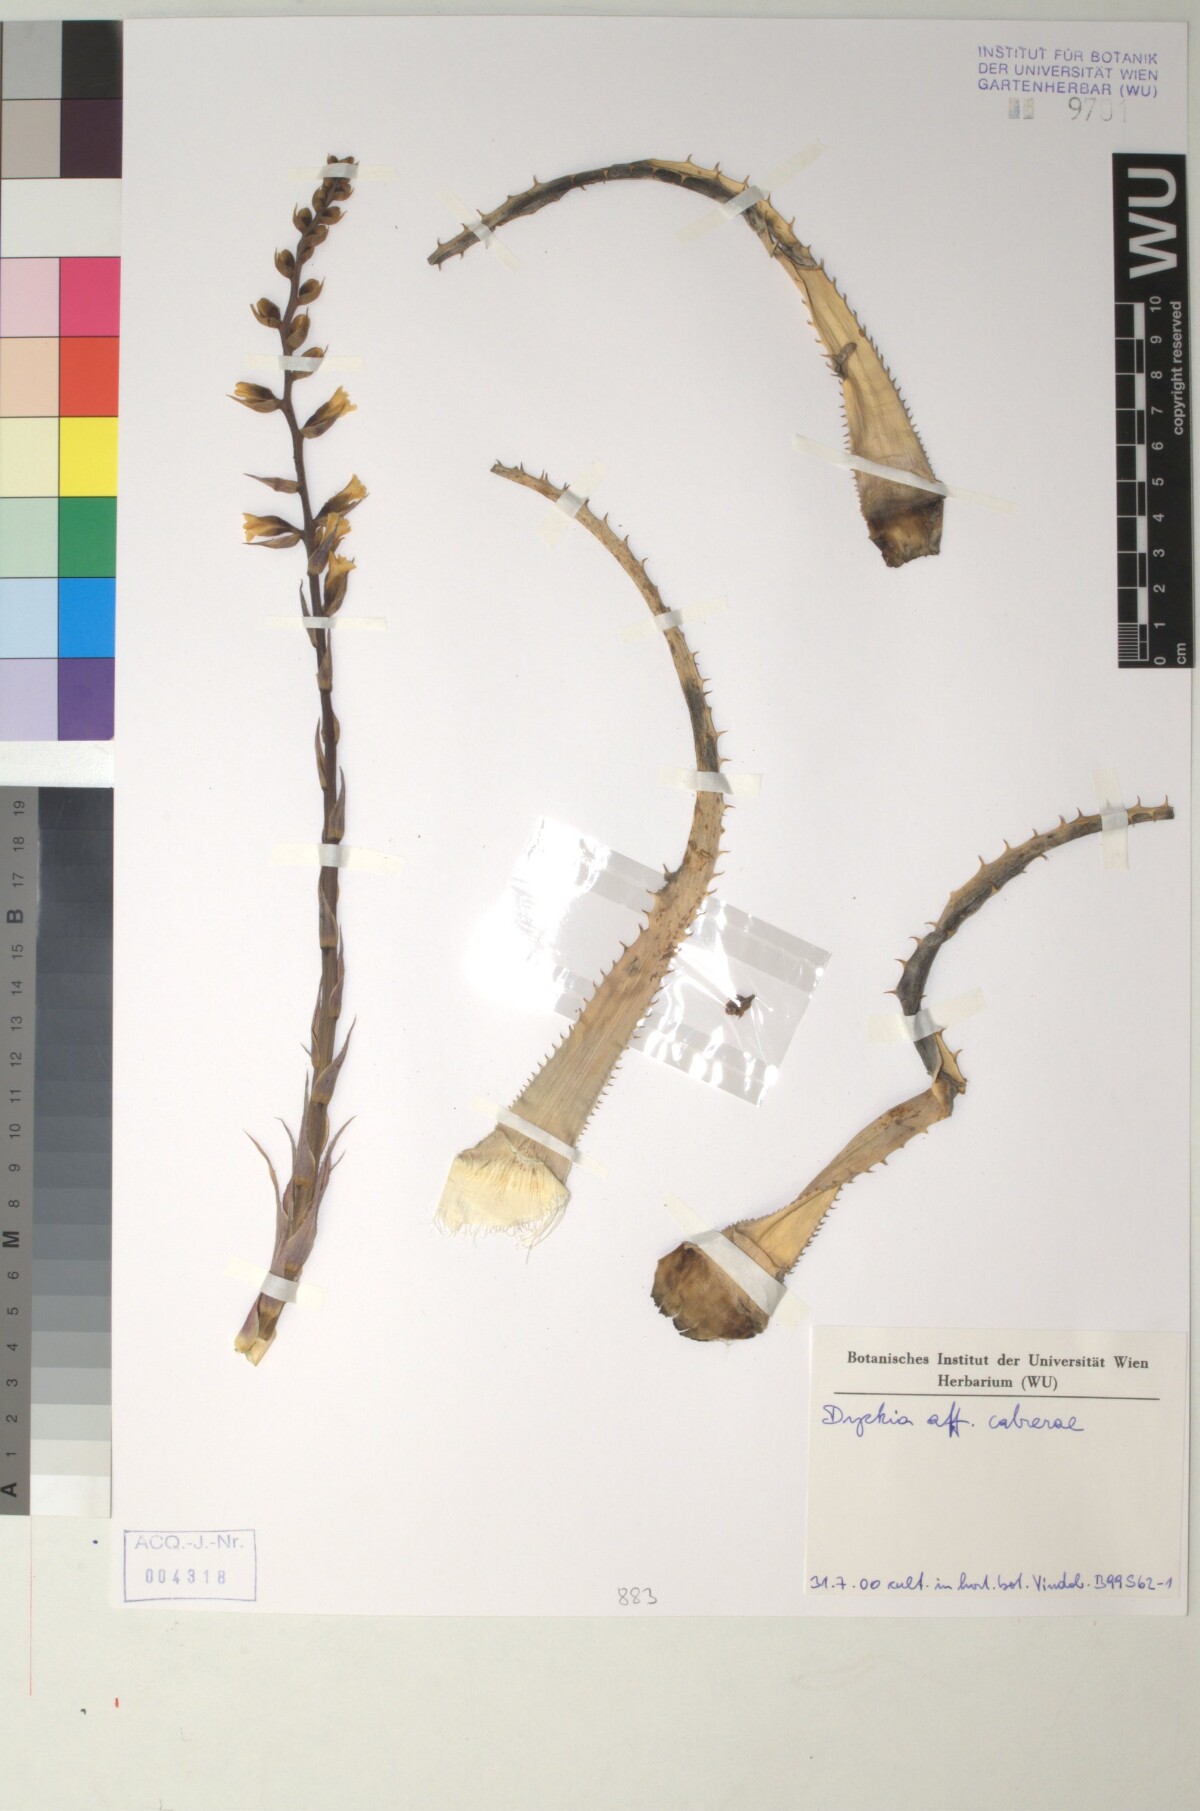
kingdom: Plantae
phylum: Tracheophyta
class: Liliopsida
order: Poales
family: Bromeliaceae
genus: Dyckia
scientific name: Dyckia cabrerae
